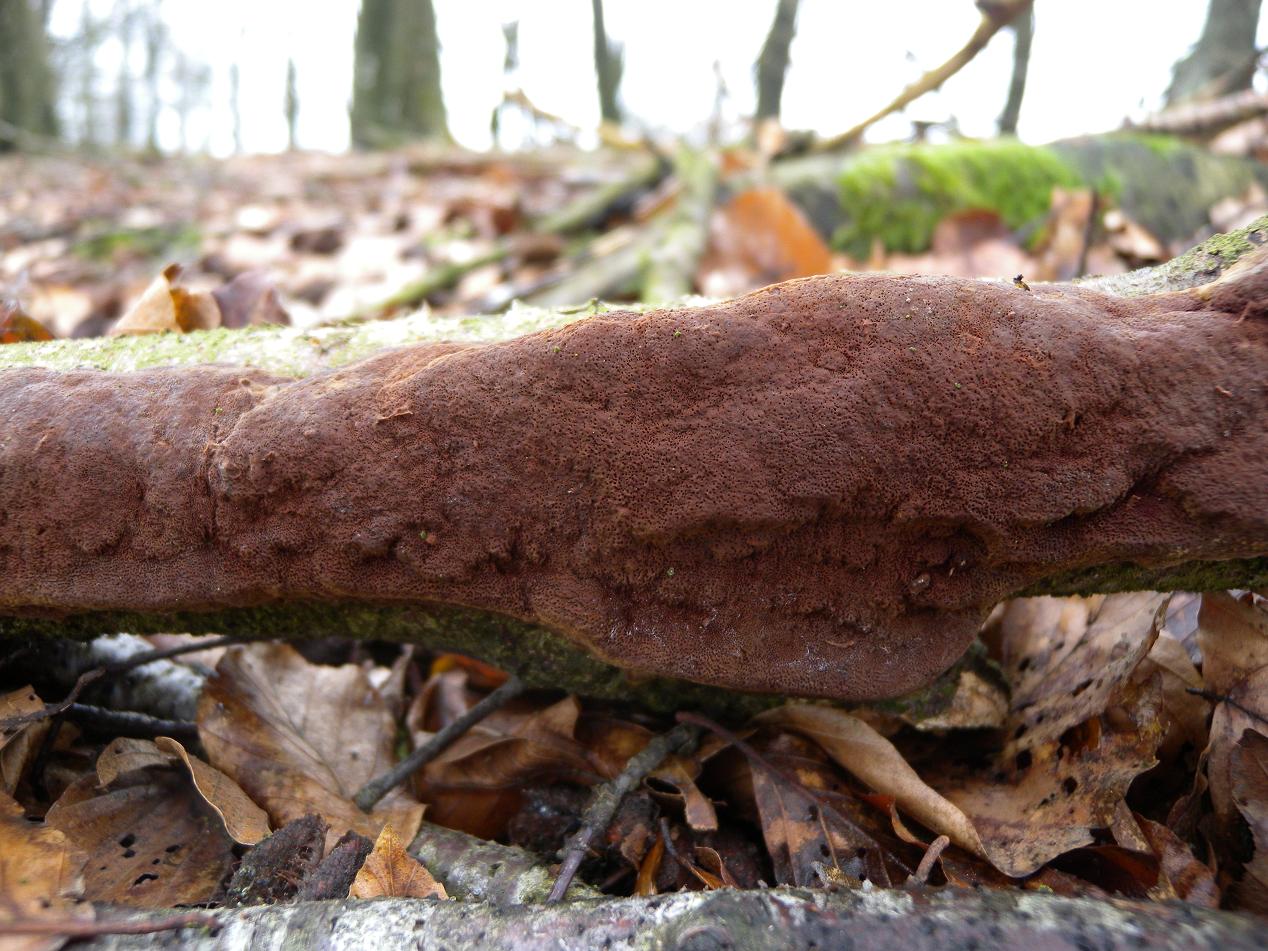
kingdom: Fungi
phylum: Basidiomycota
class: Agaricomycetes
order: Hymenochaetales
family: Hymenochaetaceae
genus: Fuscoporia
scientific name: Fuscoporia ferrea
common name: skorpe-ildporesvamp
